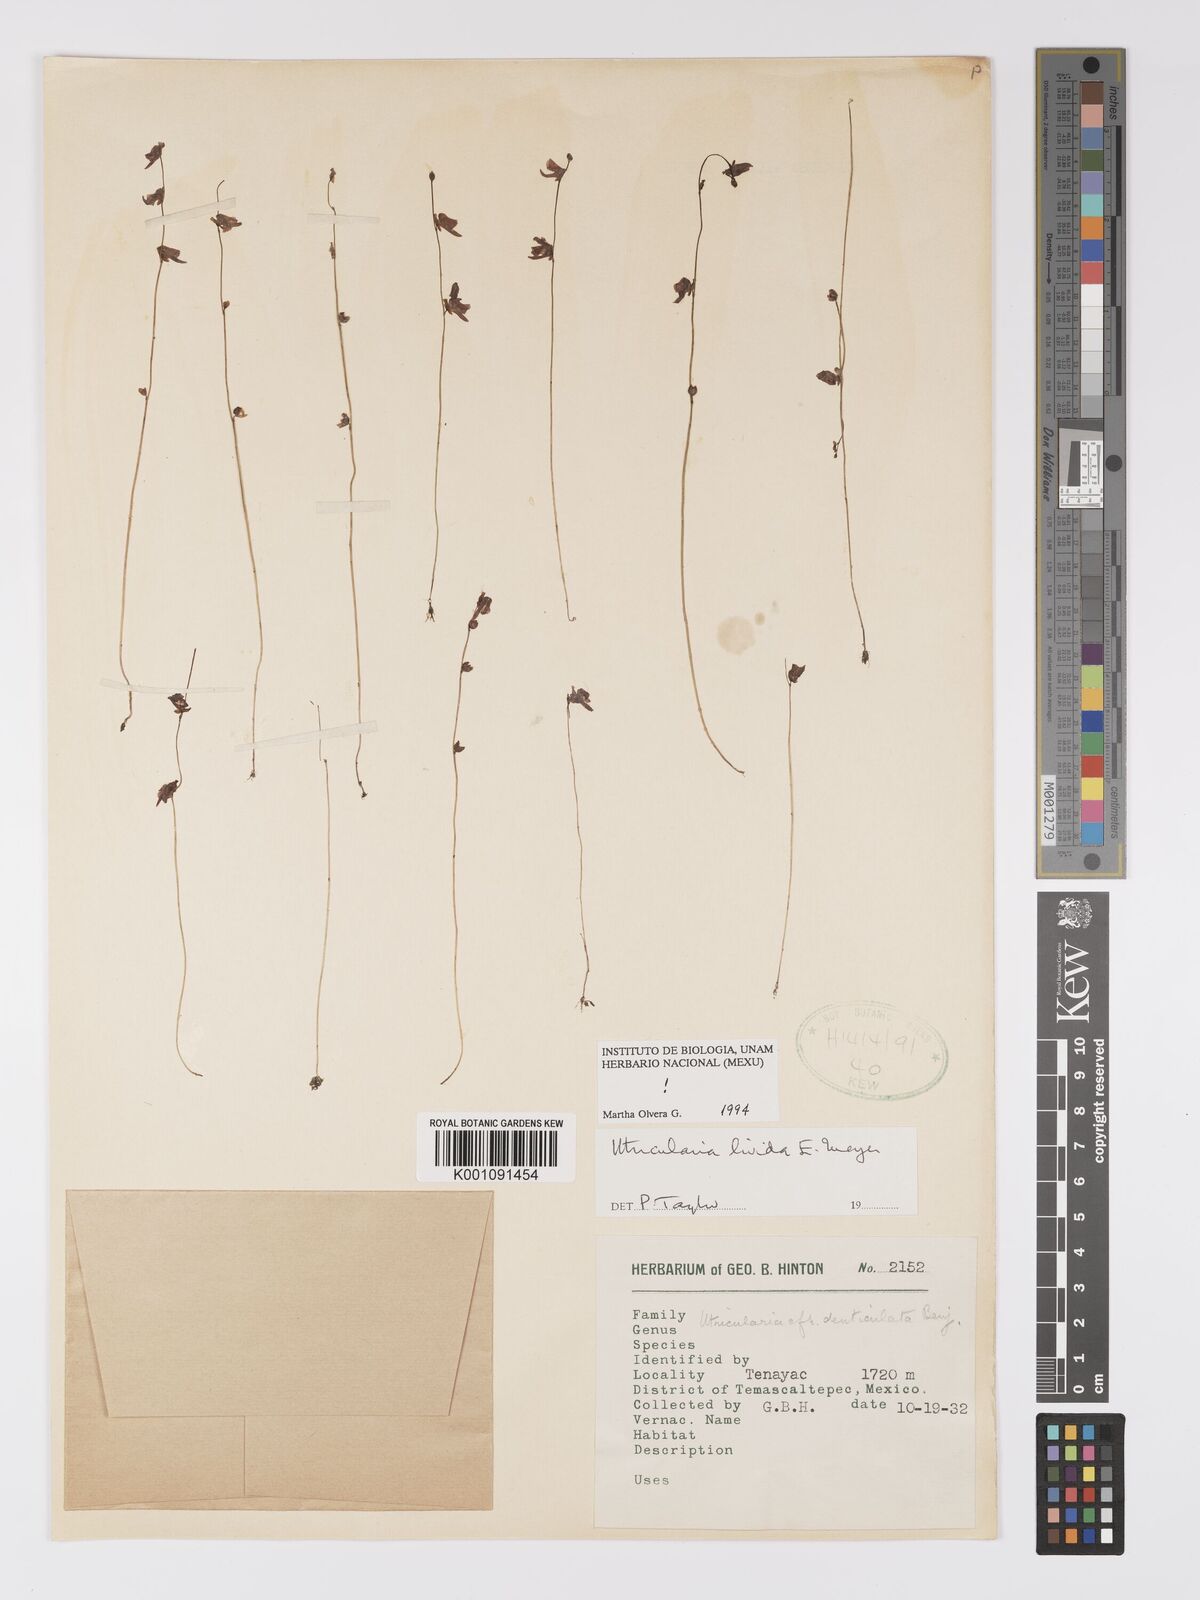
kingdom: Plantae
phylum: Tracheophyta
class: Magnoliopsida
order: Lamiales
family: Lentibulariaceae
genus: Utricularia
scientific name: Utricularia livida
